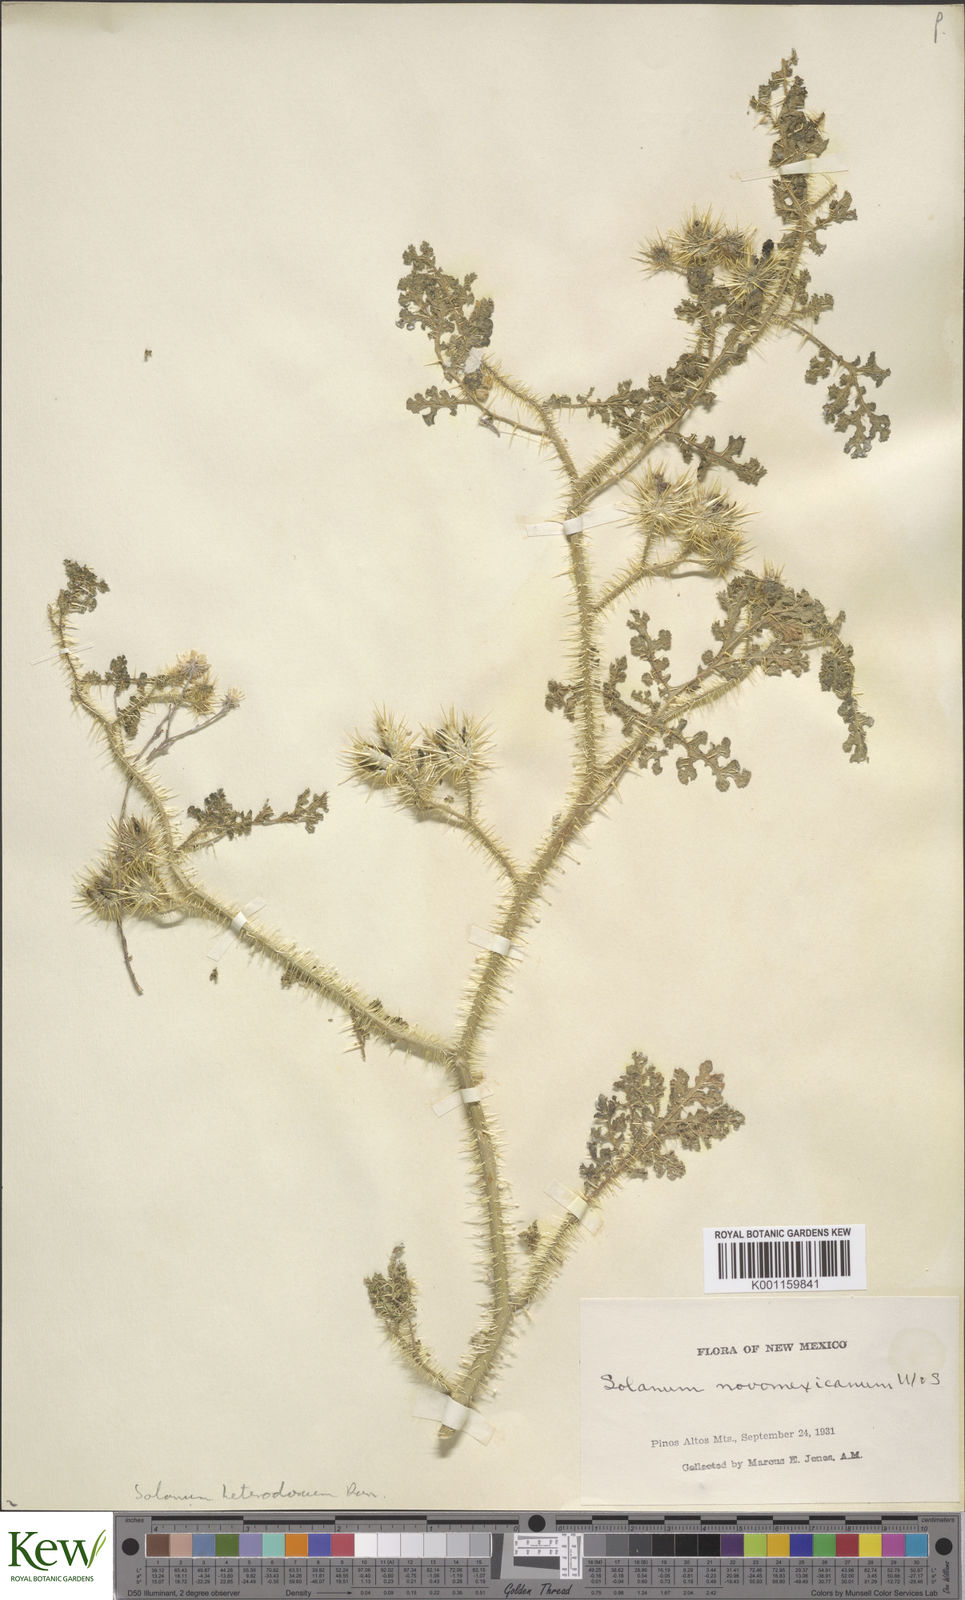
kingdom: Plantae
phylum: Tracheophyta
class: Magnoliopsida
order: Solanales
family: Solanaceae
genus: Solanum
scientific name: Solanum heterodoxum
